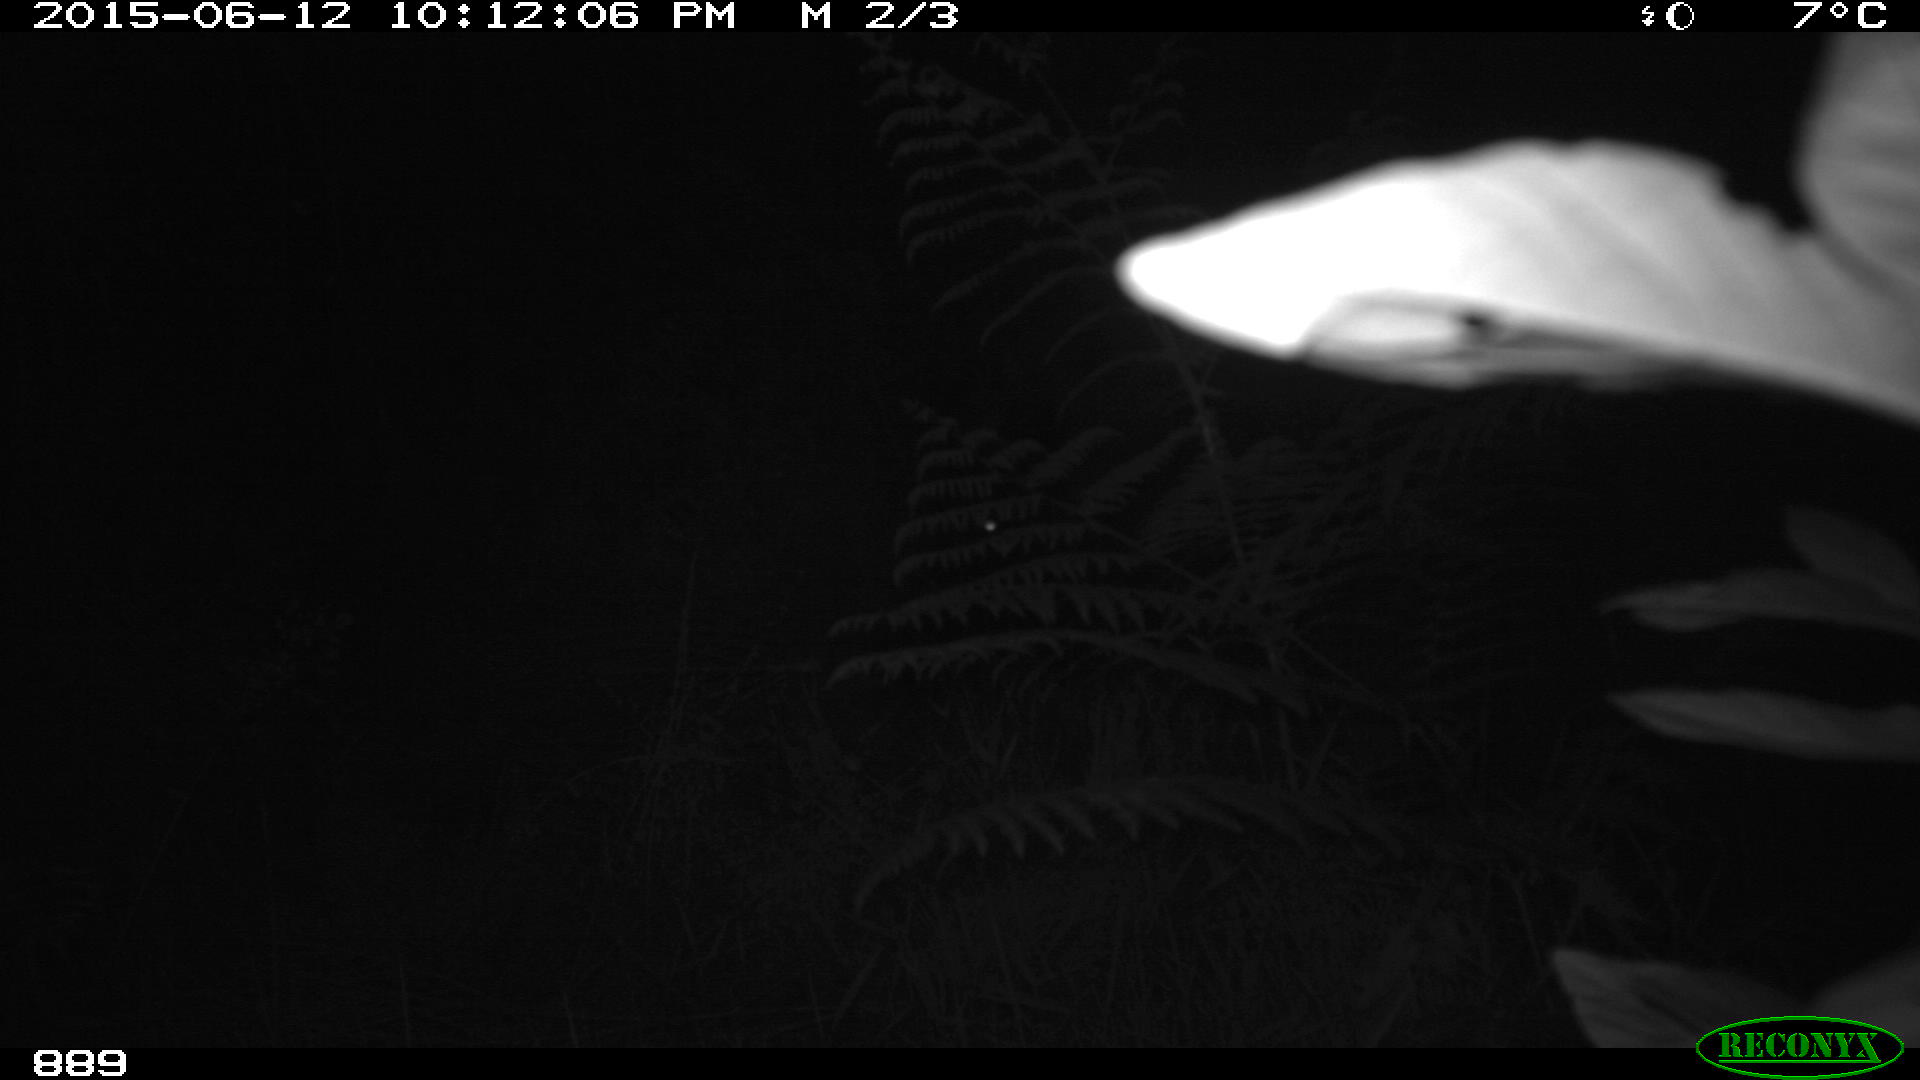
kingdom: Animalia
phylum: Chordata
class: Mammalia
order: Artiodactyla
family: Suidae
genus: Sus
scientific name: Sus scrofa
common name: Wild boar
